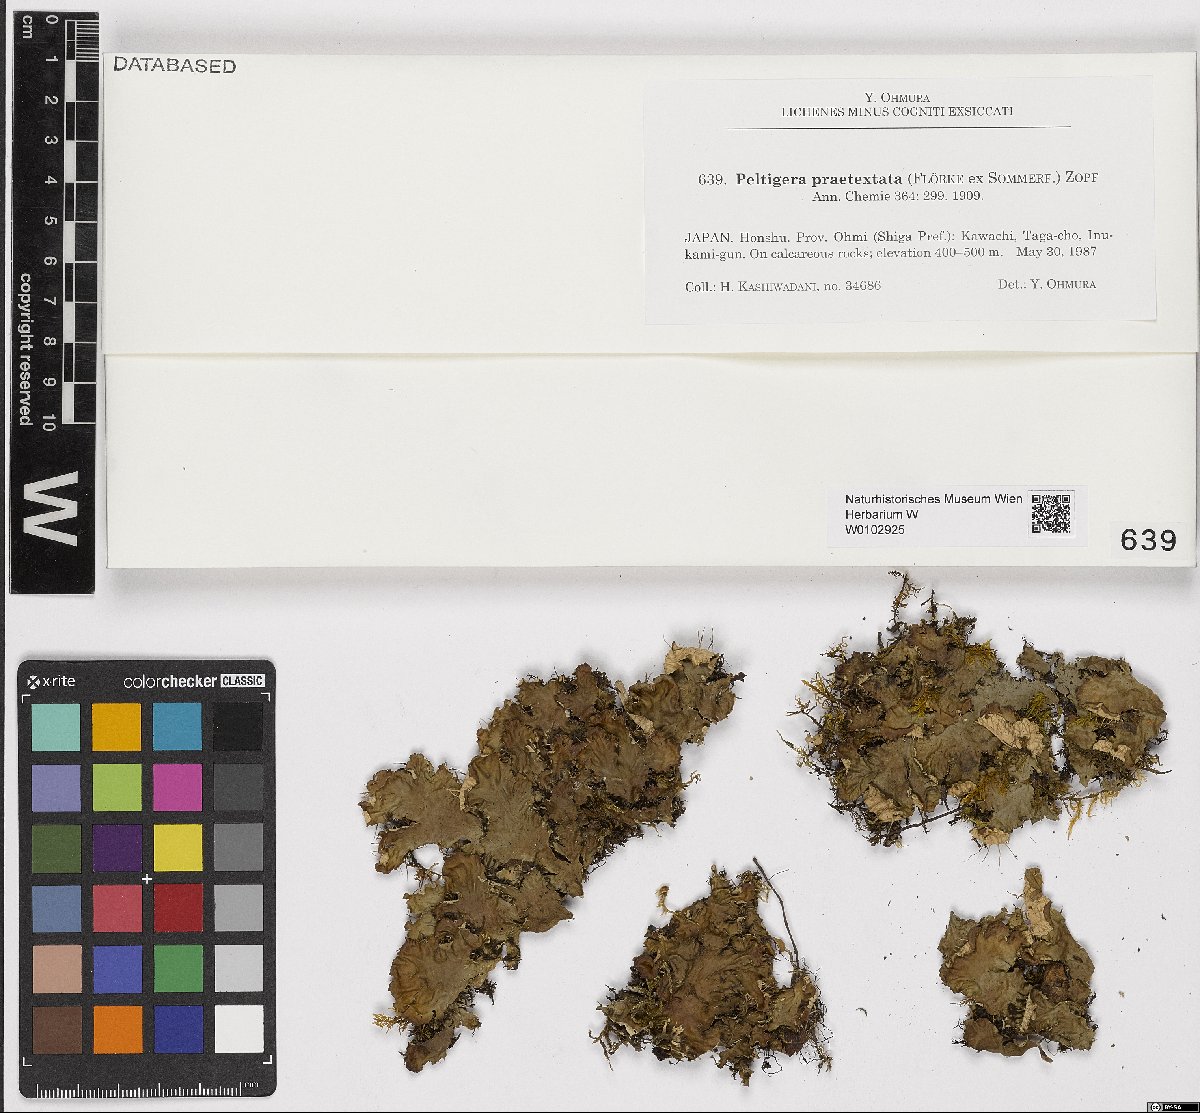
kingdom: Fungi
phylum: Ascomycota
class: Lecanoromycetes
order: Peltigerales
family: Peltigeraceae
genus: Peltigera
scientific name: Peltigera praetextata
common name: Scaly dog-lichen
